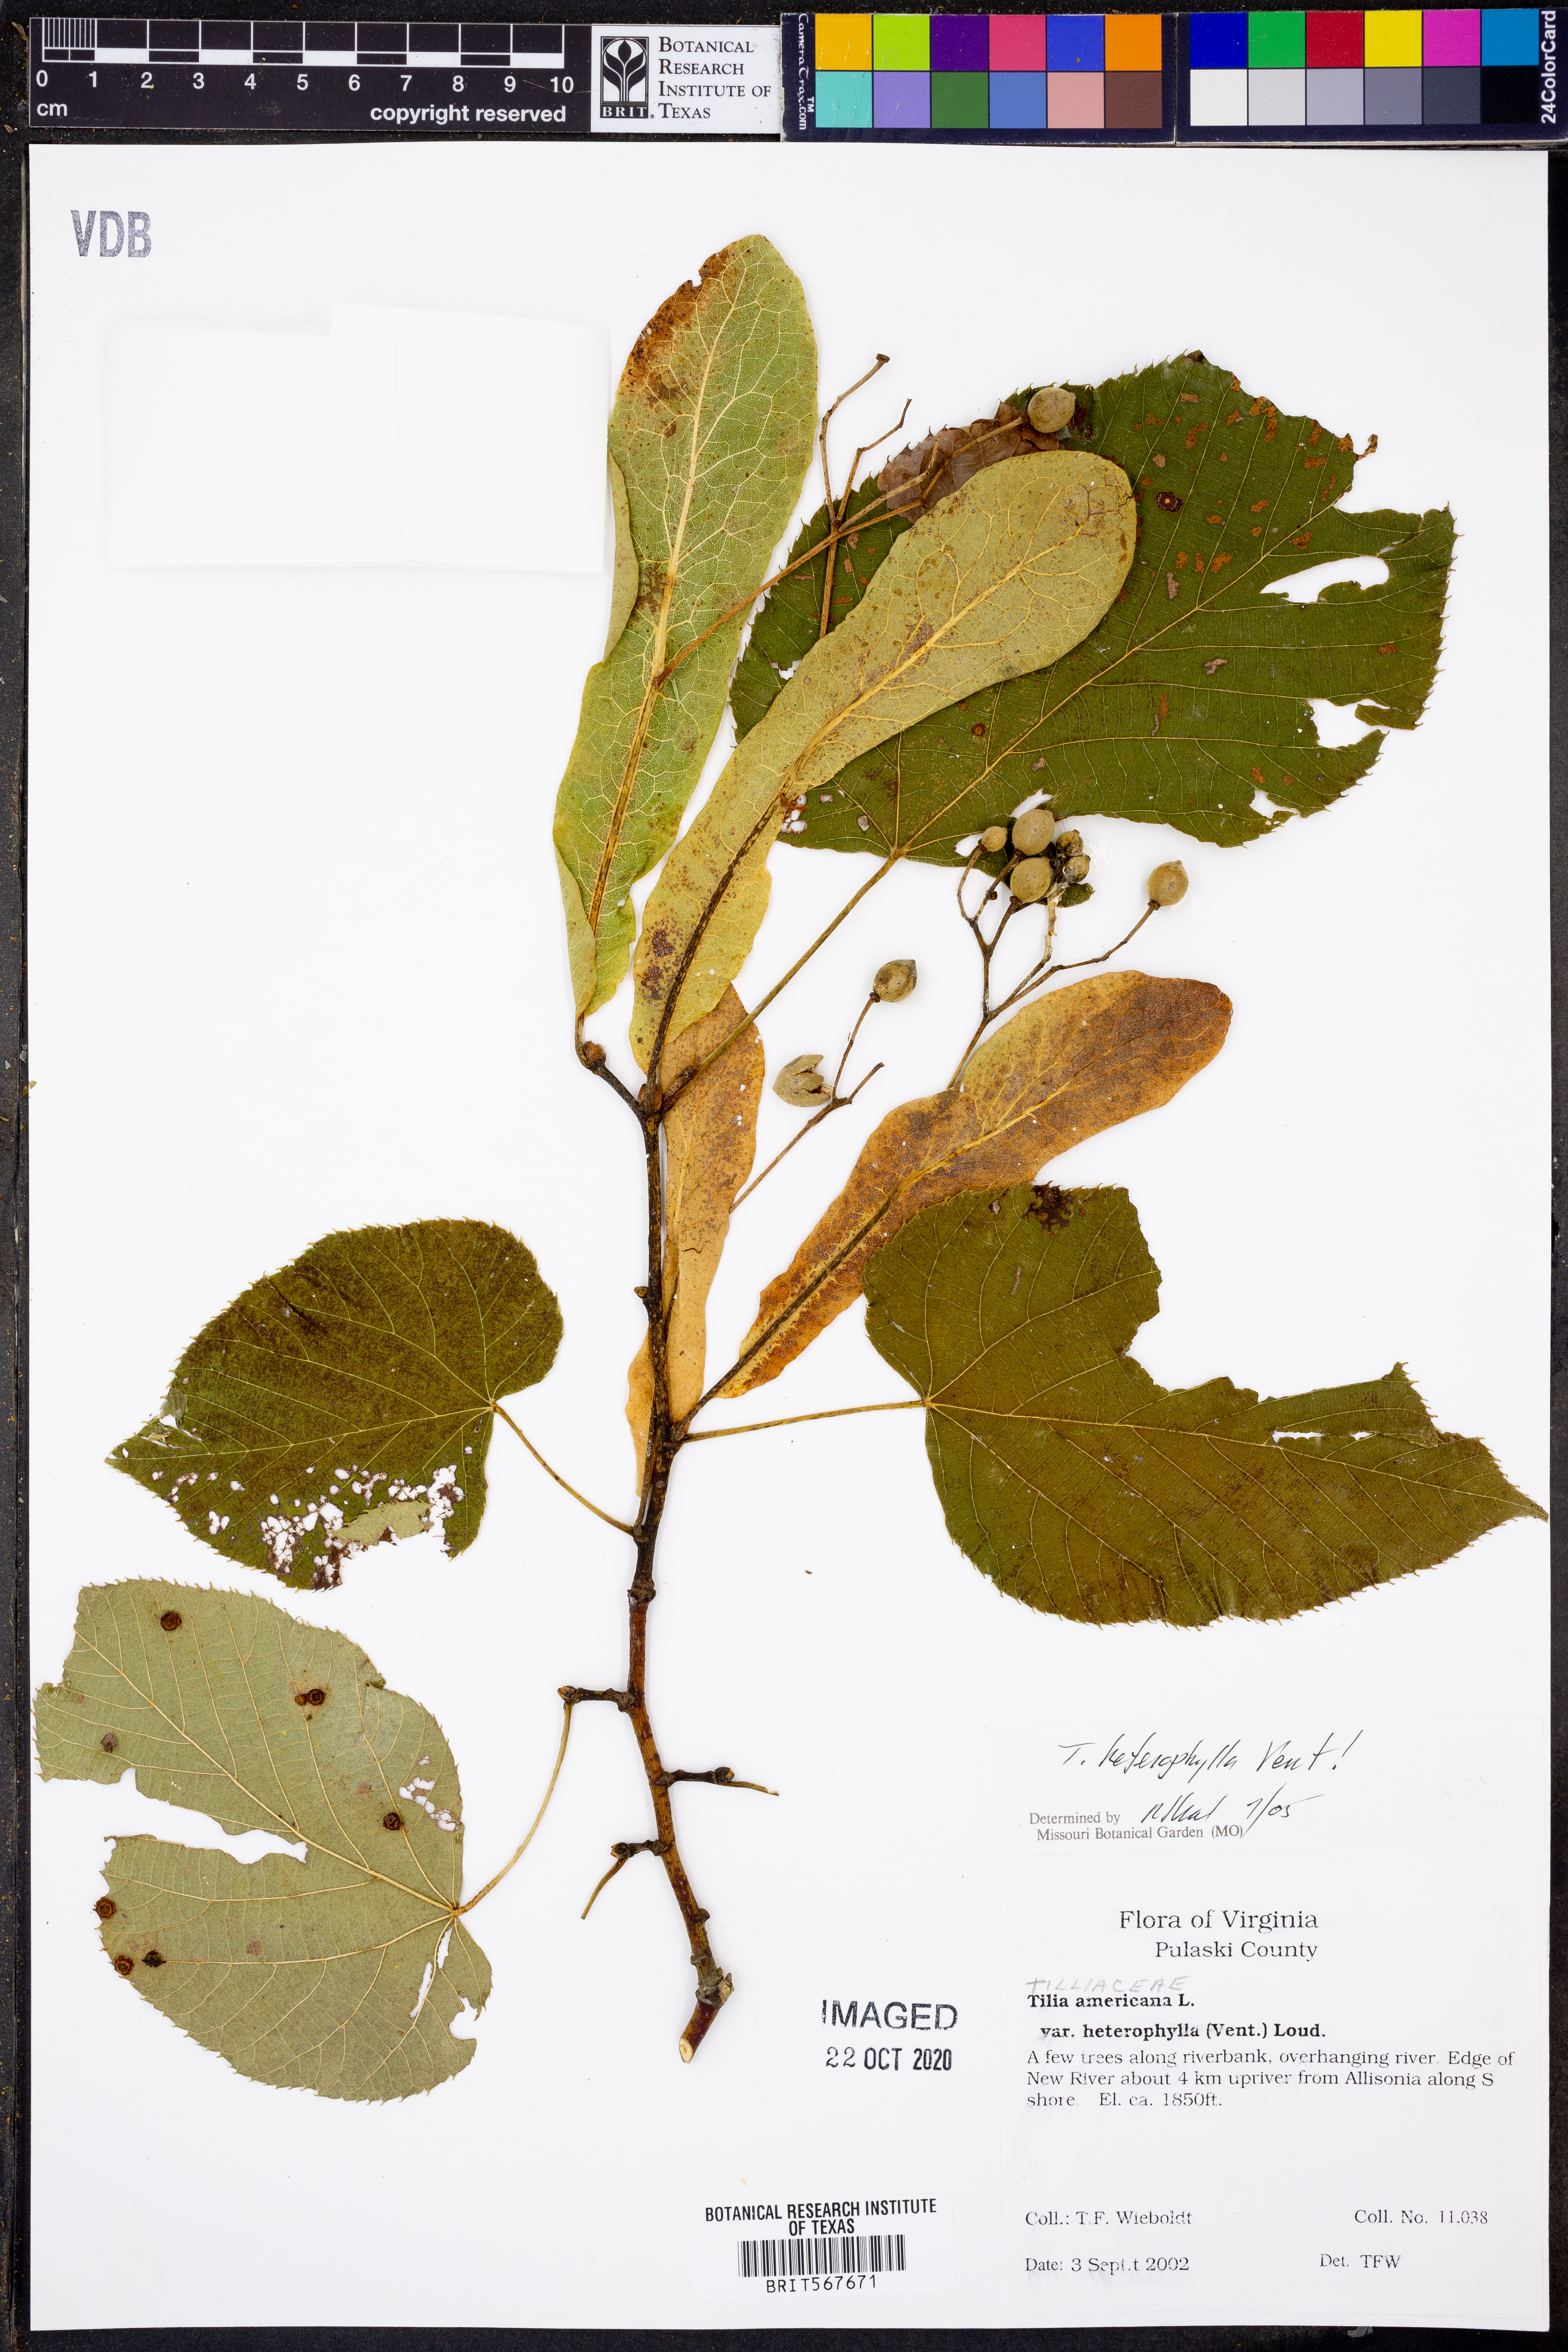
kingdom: Plantae
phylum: Tracheophyta
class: Magnoliopsida
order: Malvales
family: Malvaceae
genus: Tilia
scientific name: Tilia americana
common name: Basswood
